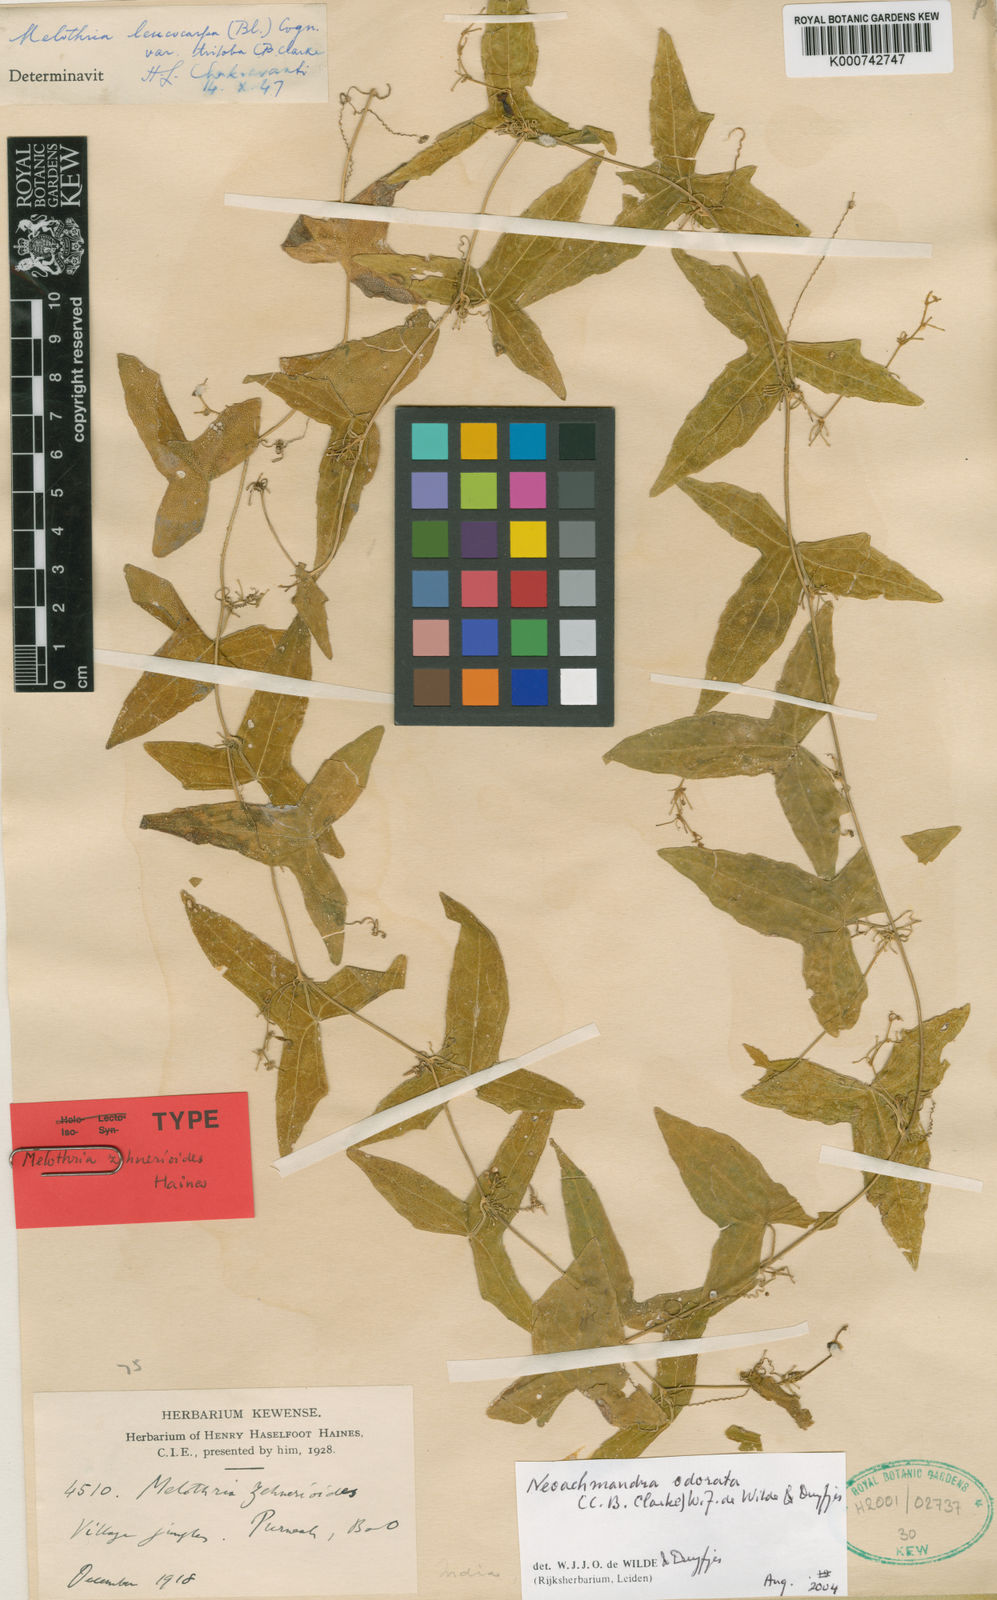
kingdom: Plantae
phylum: Tracheophyta
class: Magnoliopsida
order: Cucurbitales
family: Cucurbitaceae
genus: Zehneria
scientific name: Zehneria odorata
